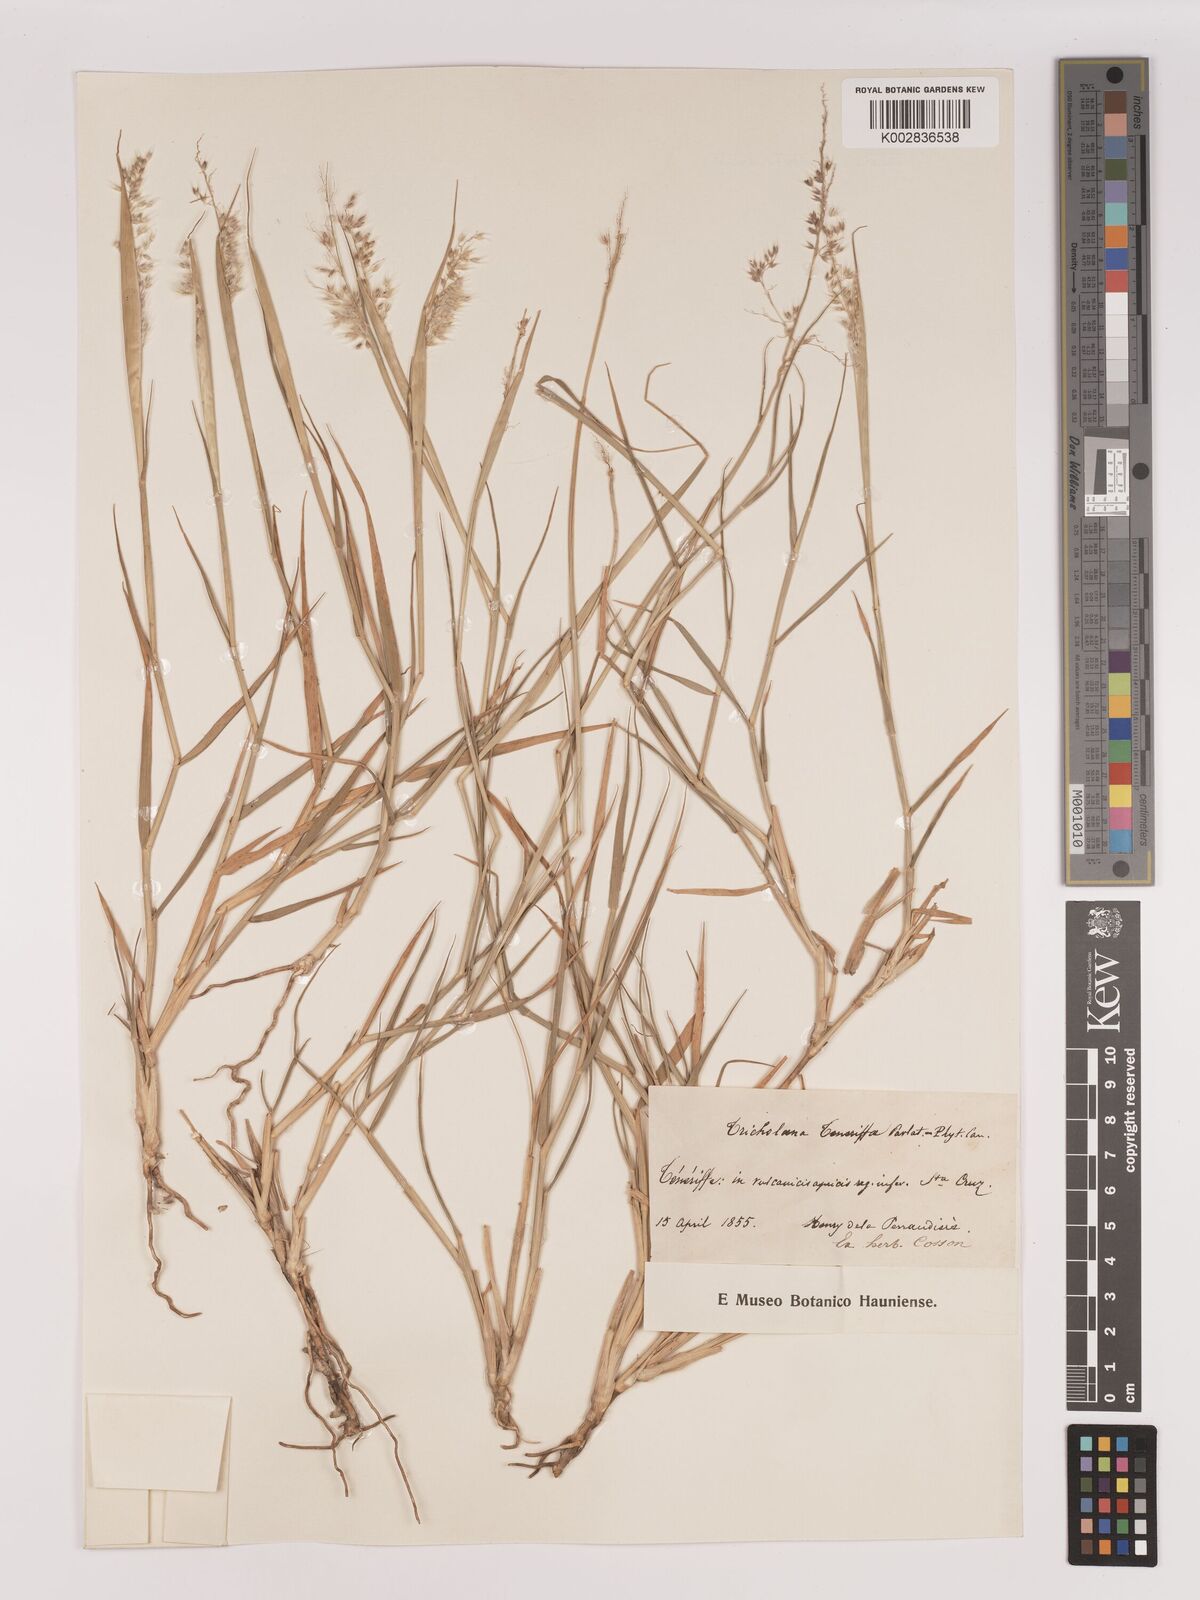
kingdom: Plantae
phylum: Tracheophyta
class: Liliopsida
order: Poales
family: Poaceae
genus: Tricholaena
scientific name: Tricholaena teneriffae
